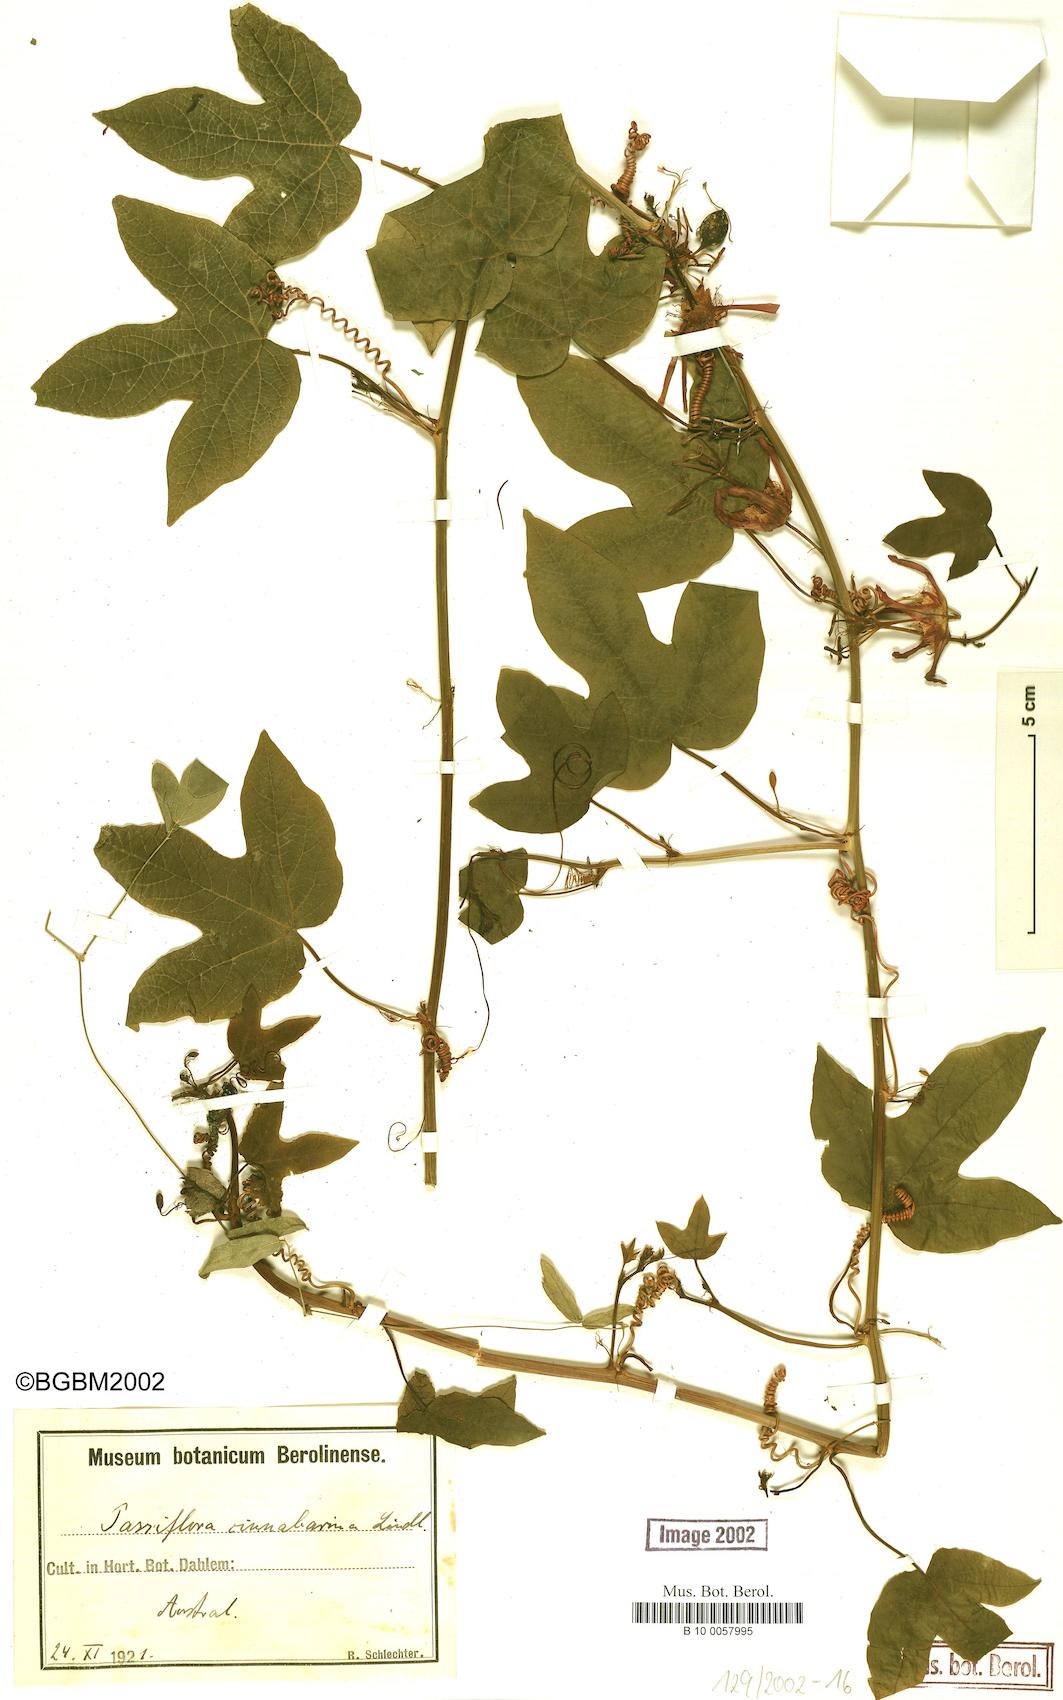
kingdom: Plantae
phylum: Tracheophyta
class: Magnoliopsida
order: Malpighiales
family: Passifloraceae
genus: Passiflora
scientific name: Passiflora cinnabarina
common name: Red passionflower
